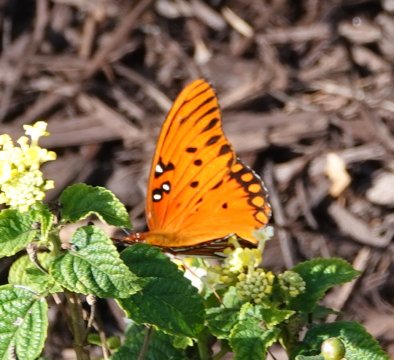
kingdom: Animalia
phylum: Arthropoda
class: Insecta
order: Lepidoptera
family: Nymphalidae
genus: Dione
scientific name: Dione vanillae
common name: Gulf Fritillary
